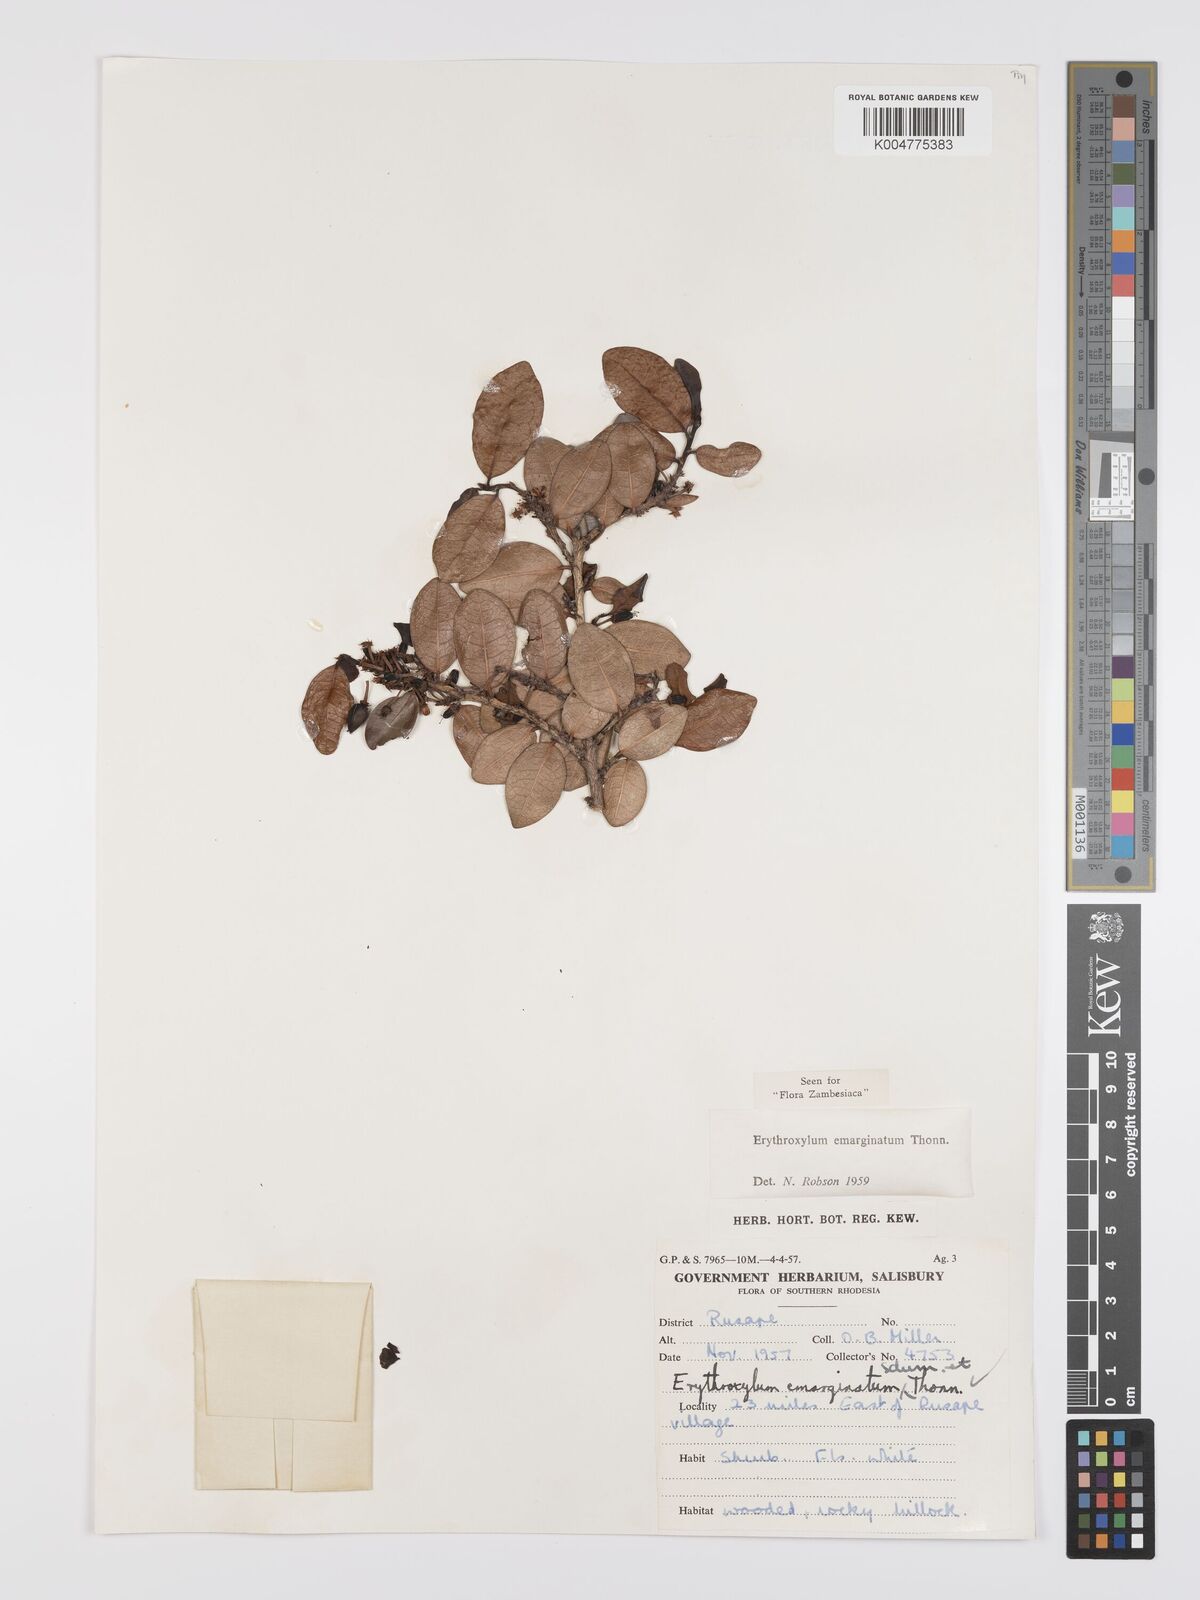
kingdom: Plantae
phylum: Tracheophyta
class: Magnoliopsida
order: Malpighiales
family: Erythroxylaceae
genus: Erythroxylum
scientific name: Erythroxylum emarginatum
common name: African coca-tree
